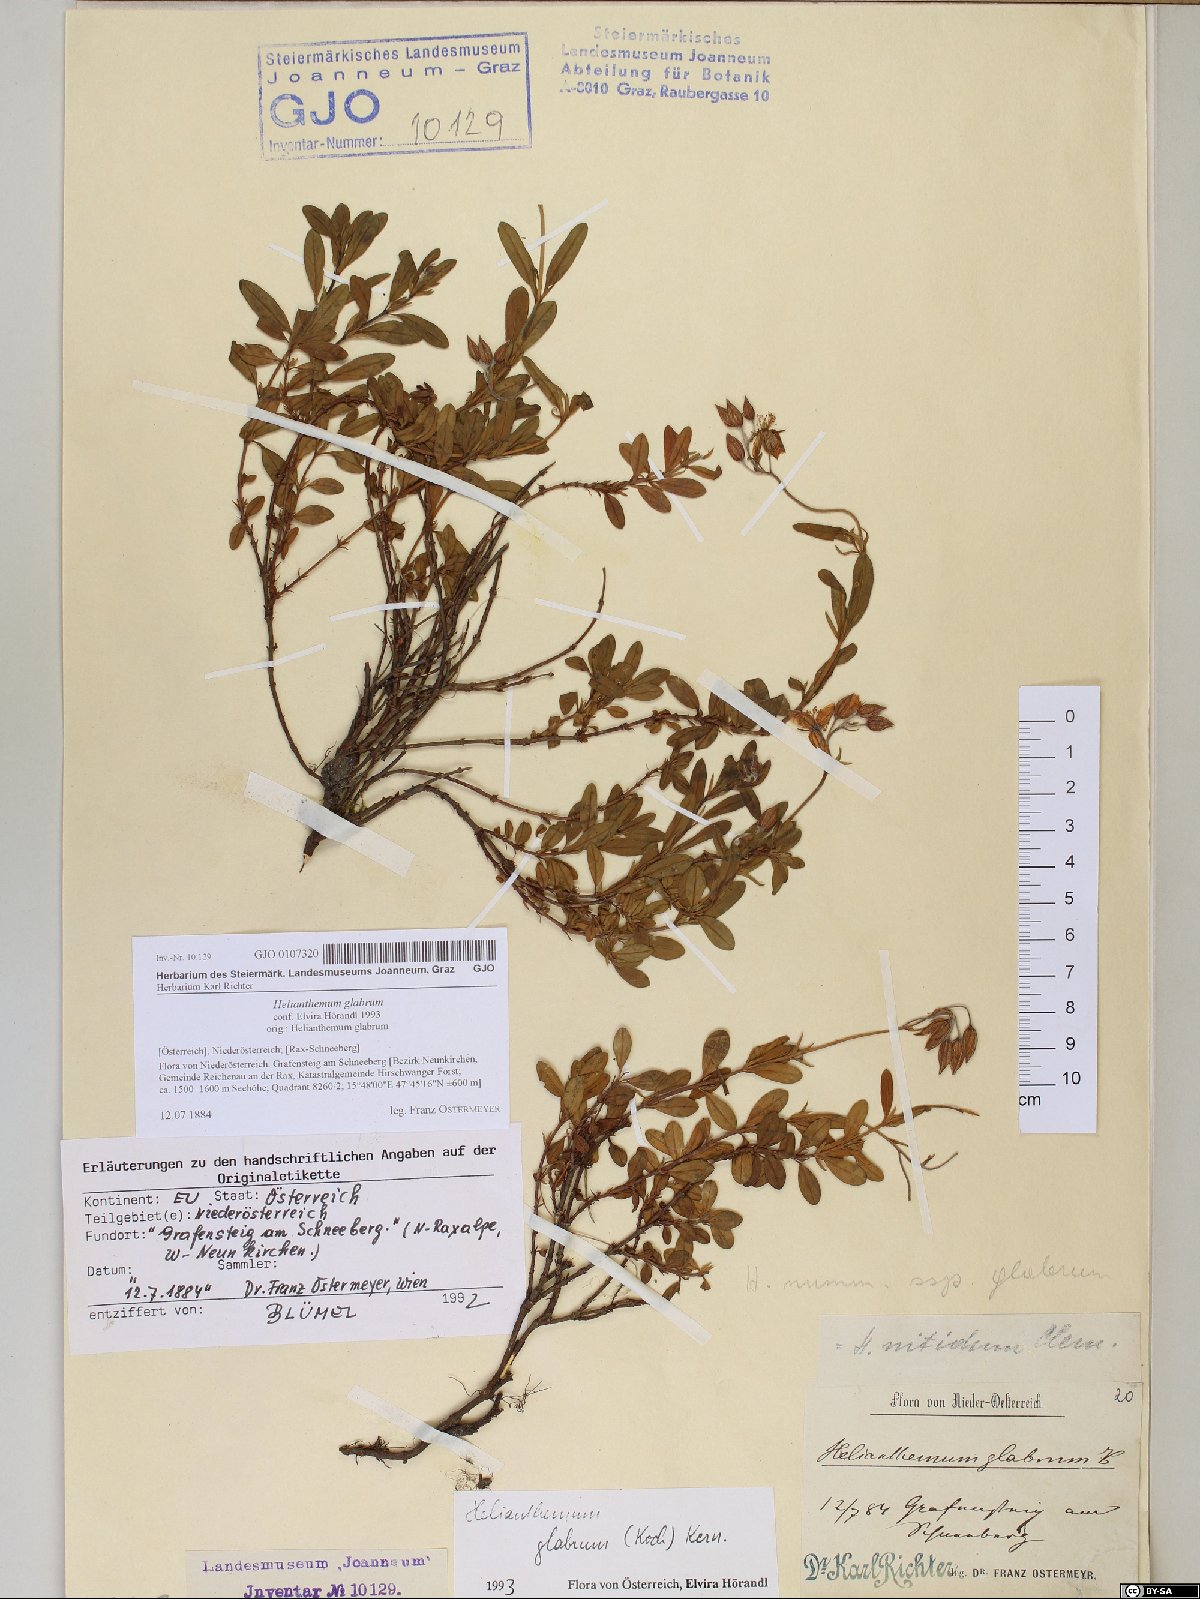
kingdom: Plantae
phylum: Tracheophyta
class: Magnoliopsida
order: Malvales
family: Cistaceae
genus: Helianthemum
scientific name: Helianthemum nummularium
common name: Common rock-rose
